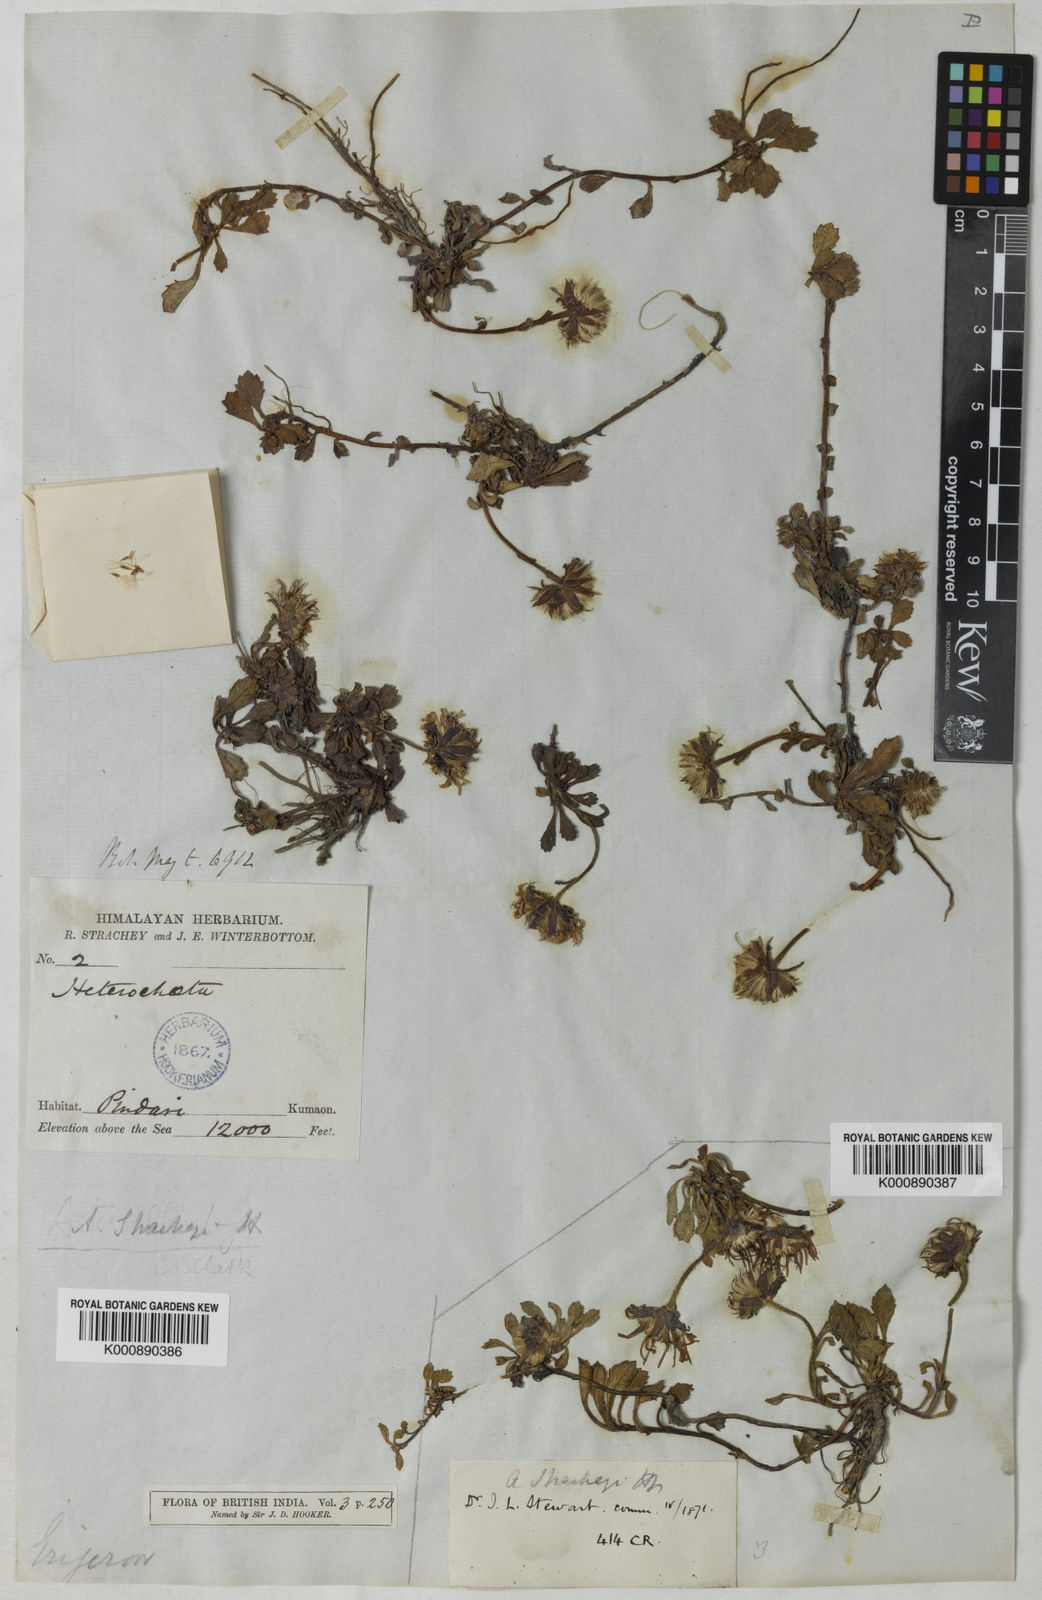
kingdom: Plantae
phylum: Tracheophyta
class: Magnoliopsida
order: Asterales
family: Asteraceae
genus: Tibetiodes
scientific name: Tibetiodes stracheyi
